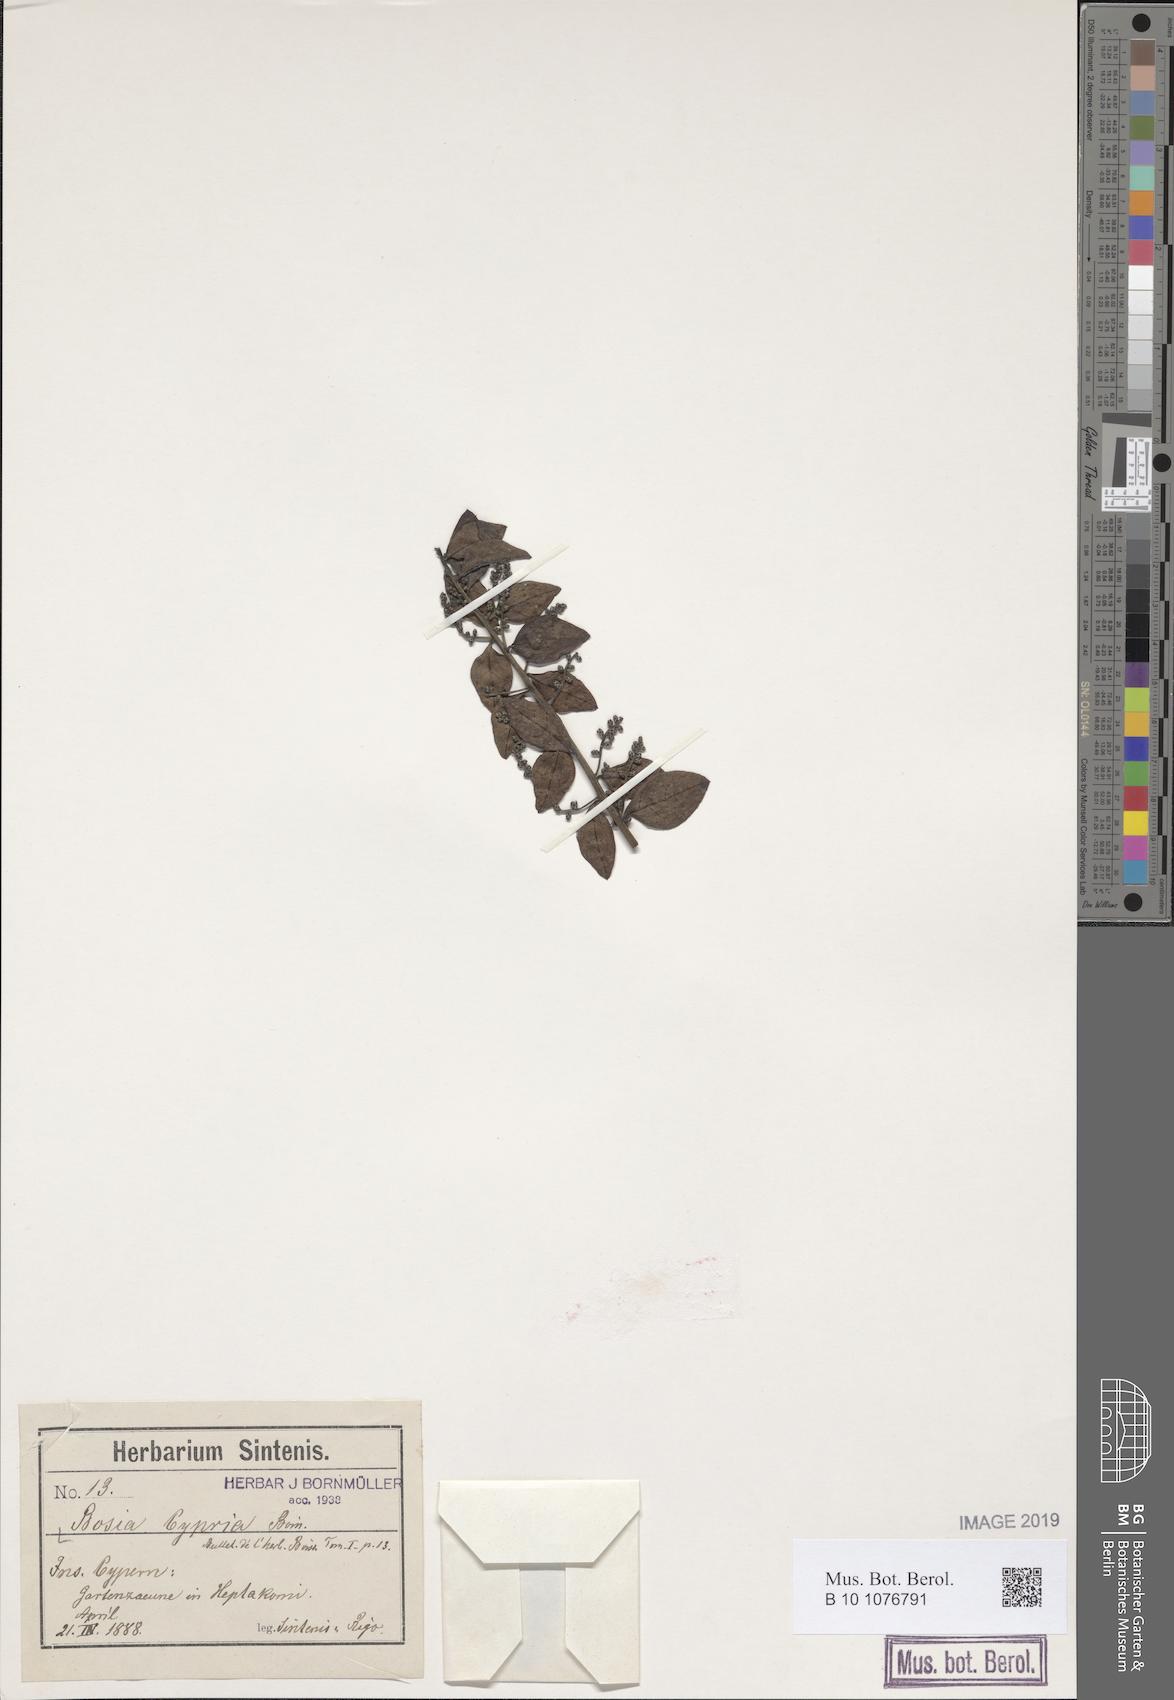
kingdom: Plantae
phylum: Tracheophyta
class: Magnoliopsida
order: Caryophyllales
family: Amaranthaceae
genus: Bosea
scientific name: Bosea cypria
